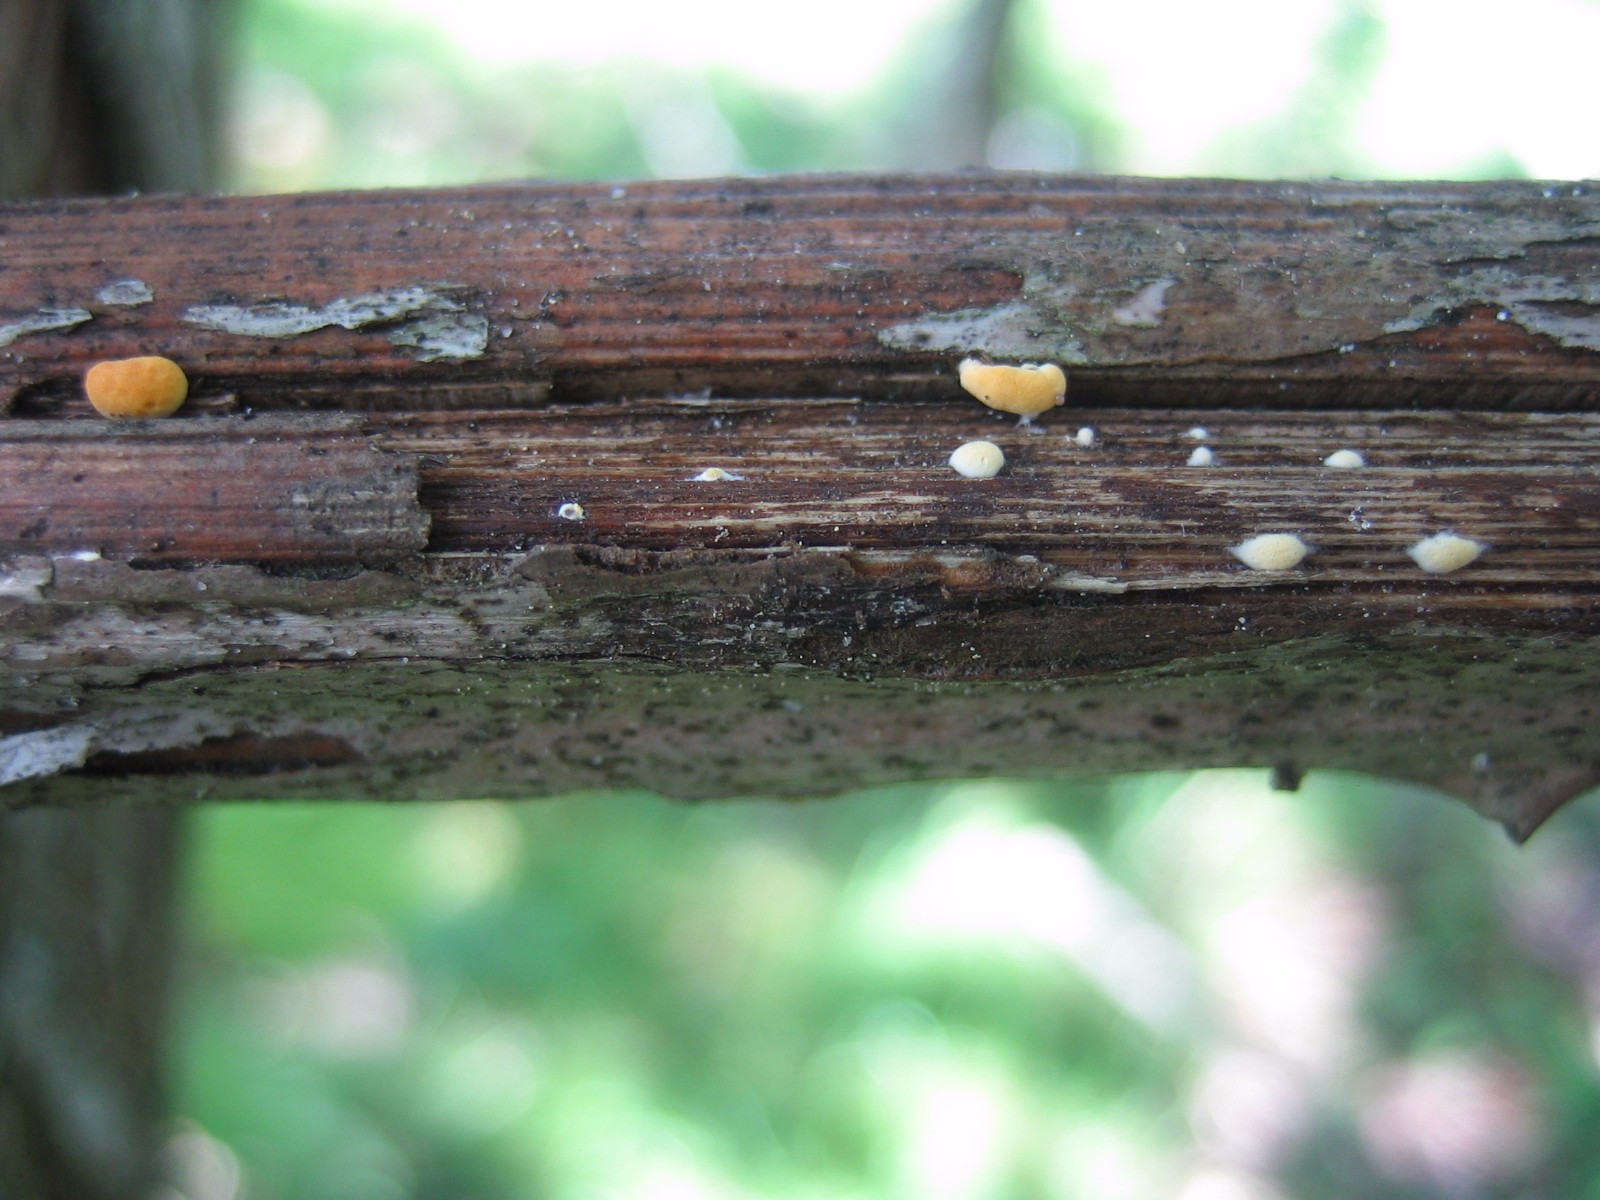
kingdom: Fungi
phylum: Ascomycota
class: Sordariomycetes
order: Hypocreales
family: Hypocreaceae
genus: Trichoderma
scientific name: Trichoderma
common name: kødkerne
